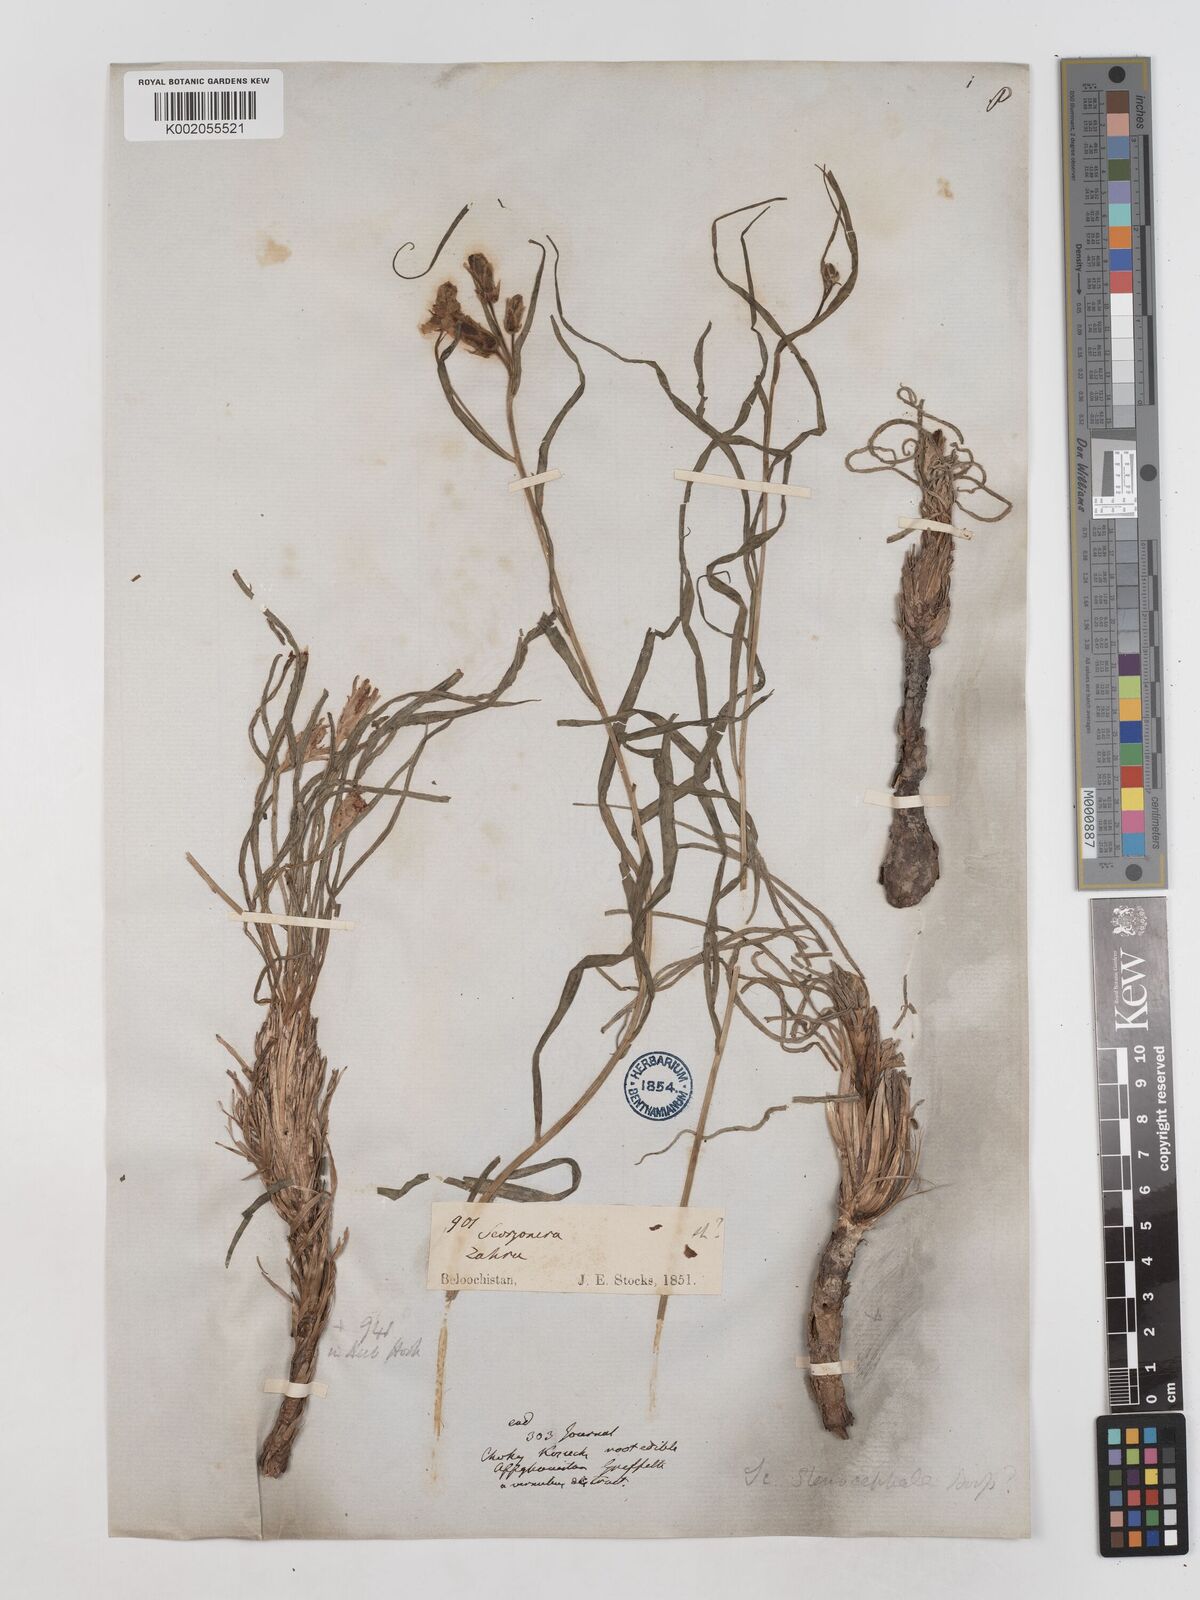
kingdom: Plantae
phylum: Tracheophyta
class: Magnoliopsida
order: Asterales
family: Asteraceae
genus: Takhtajaniantha
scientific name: Takhtajaniantha pusilla
